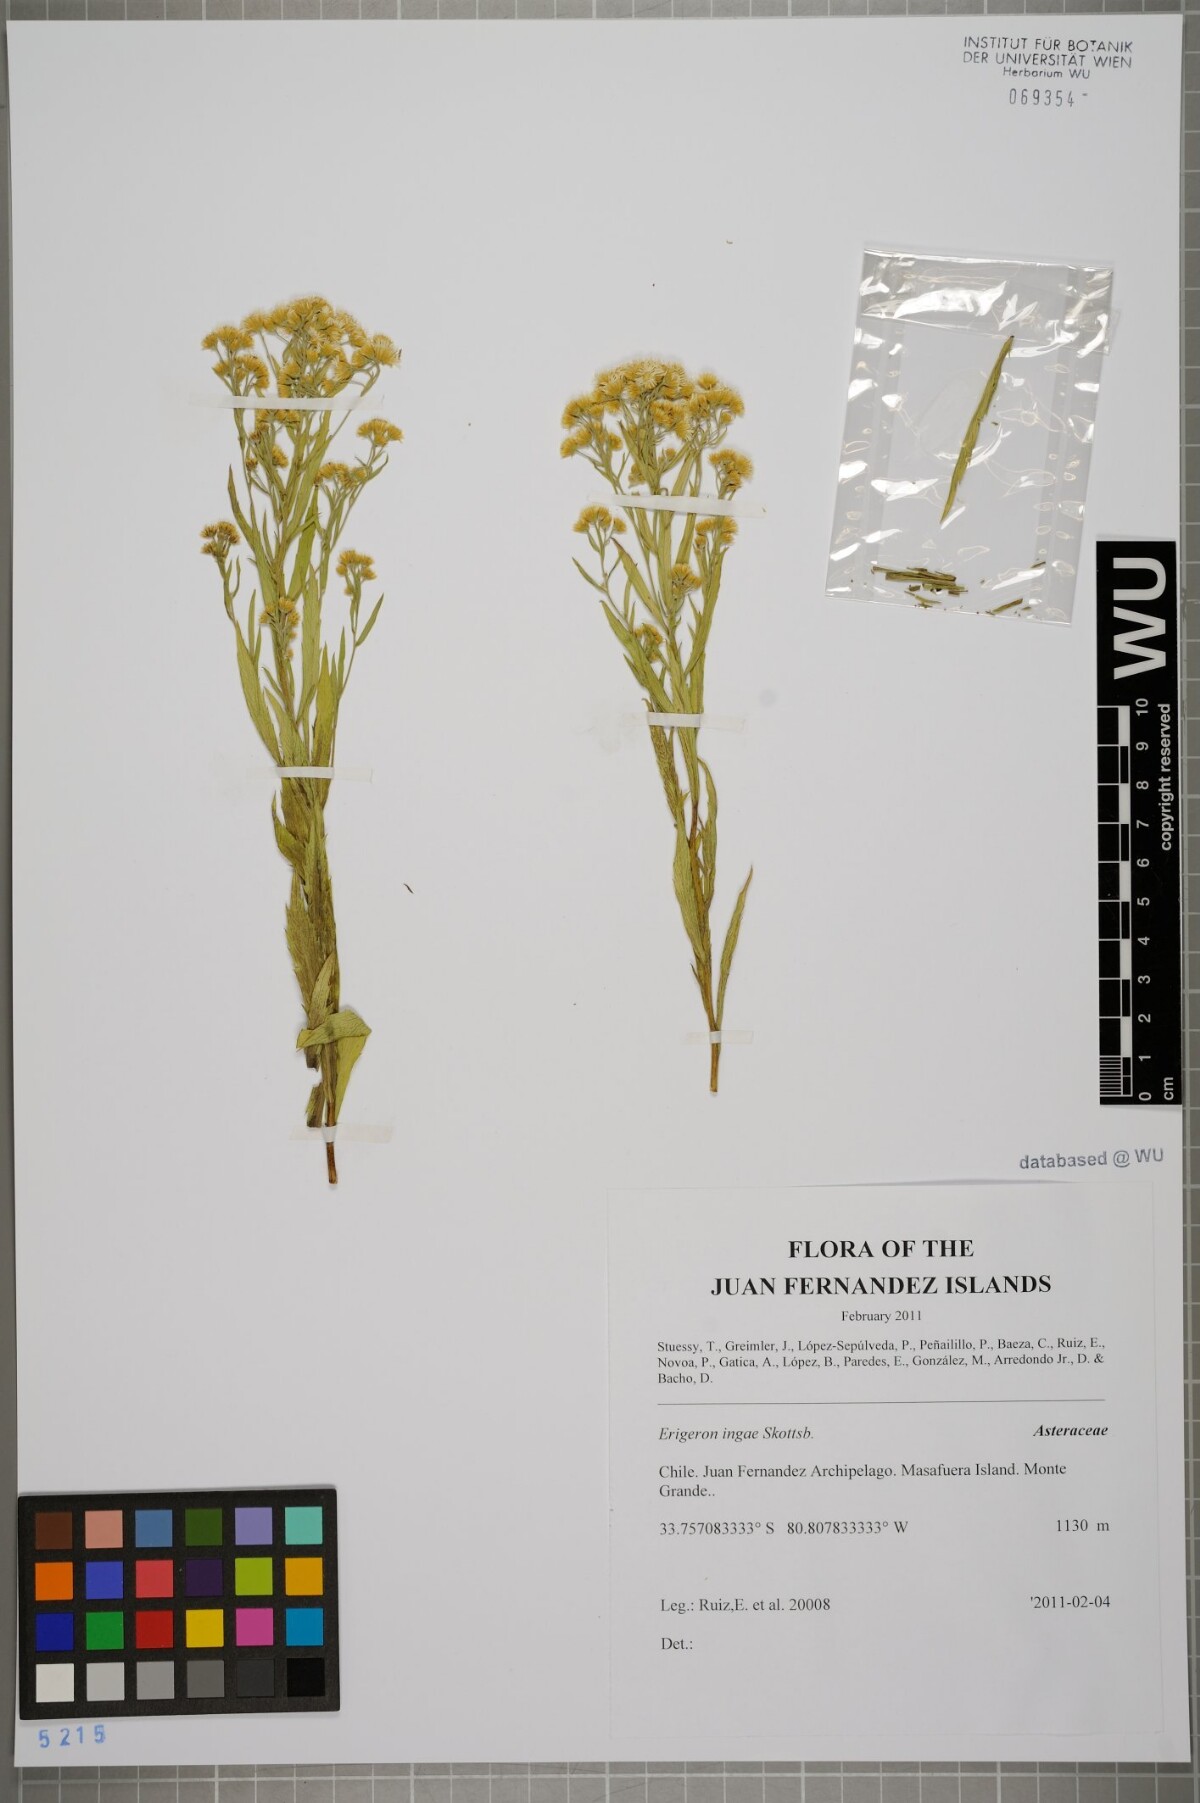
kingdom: Plantae
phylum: Tracheophyta
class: Magnoliopsida
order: Asterales
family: Asteraceae
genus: Erigeron
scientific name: Erigeron ingae
